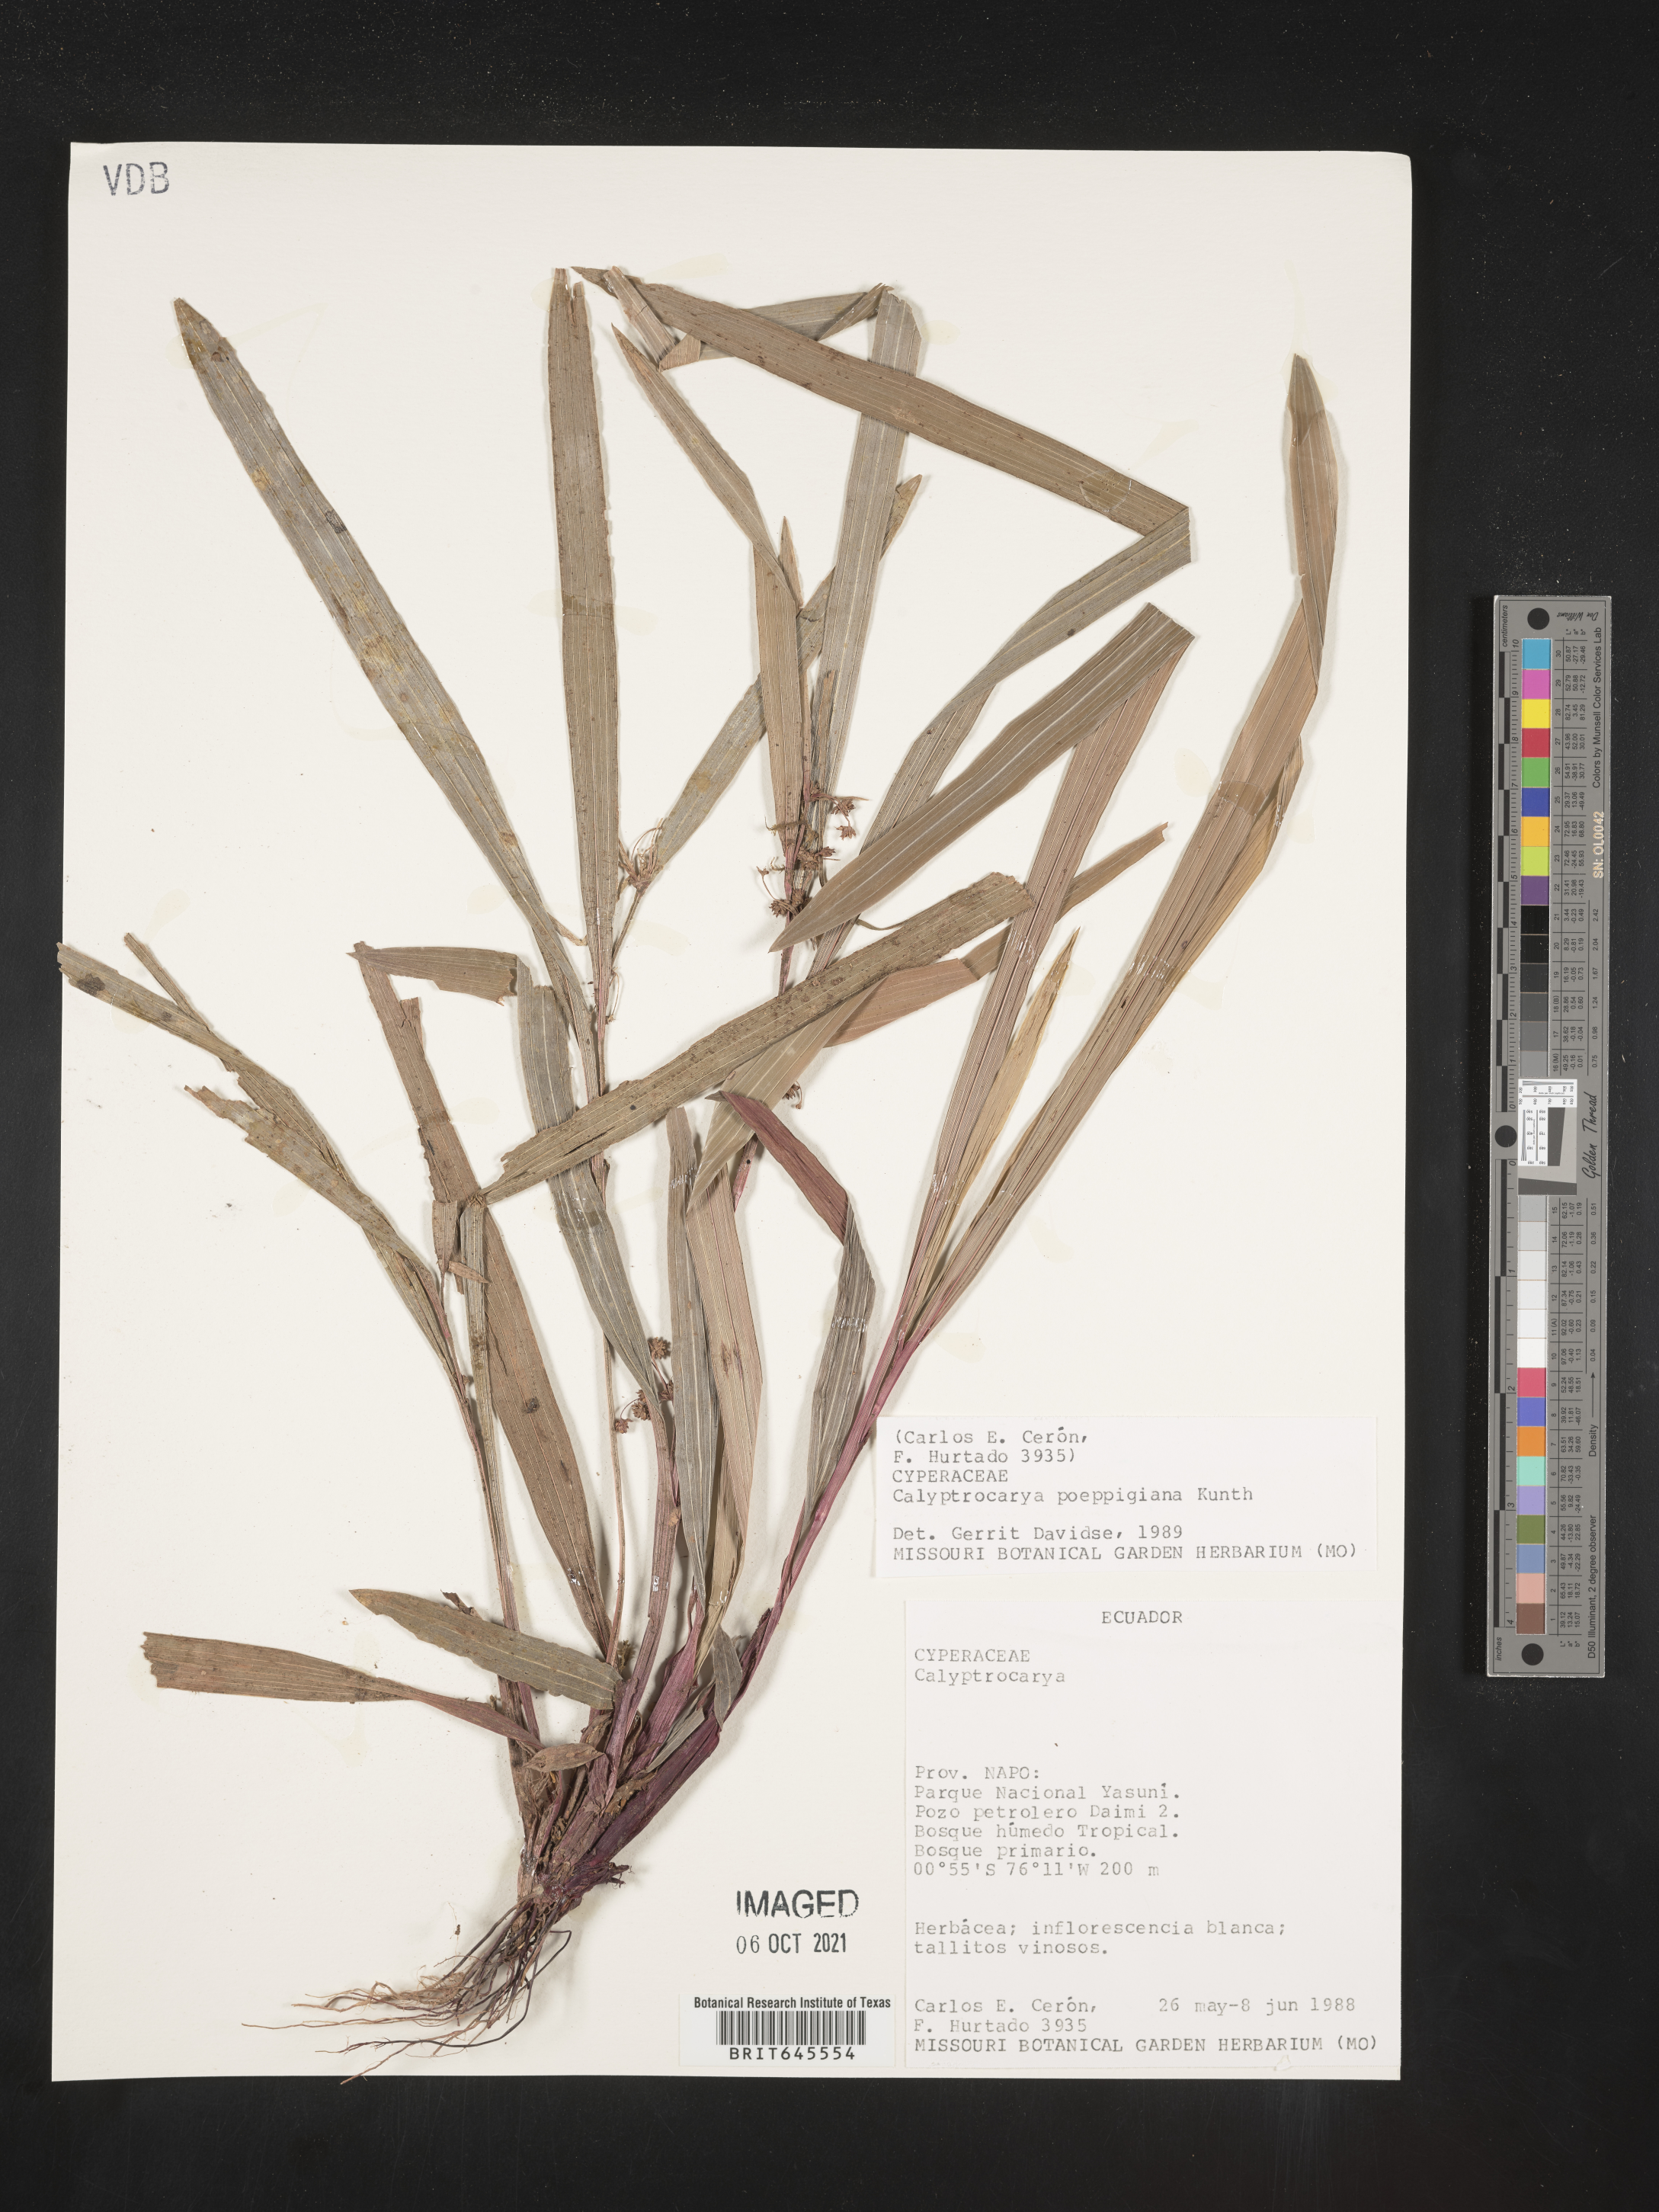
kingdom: Plantae
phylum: Tracheophyta
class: Liliopsida
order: Poales
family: Cyperaceae
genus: Calyptrocarya
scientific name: Calyptrocarya poeppigiana
